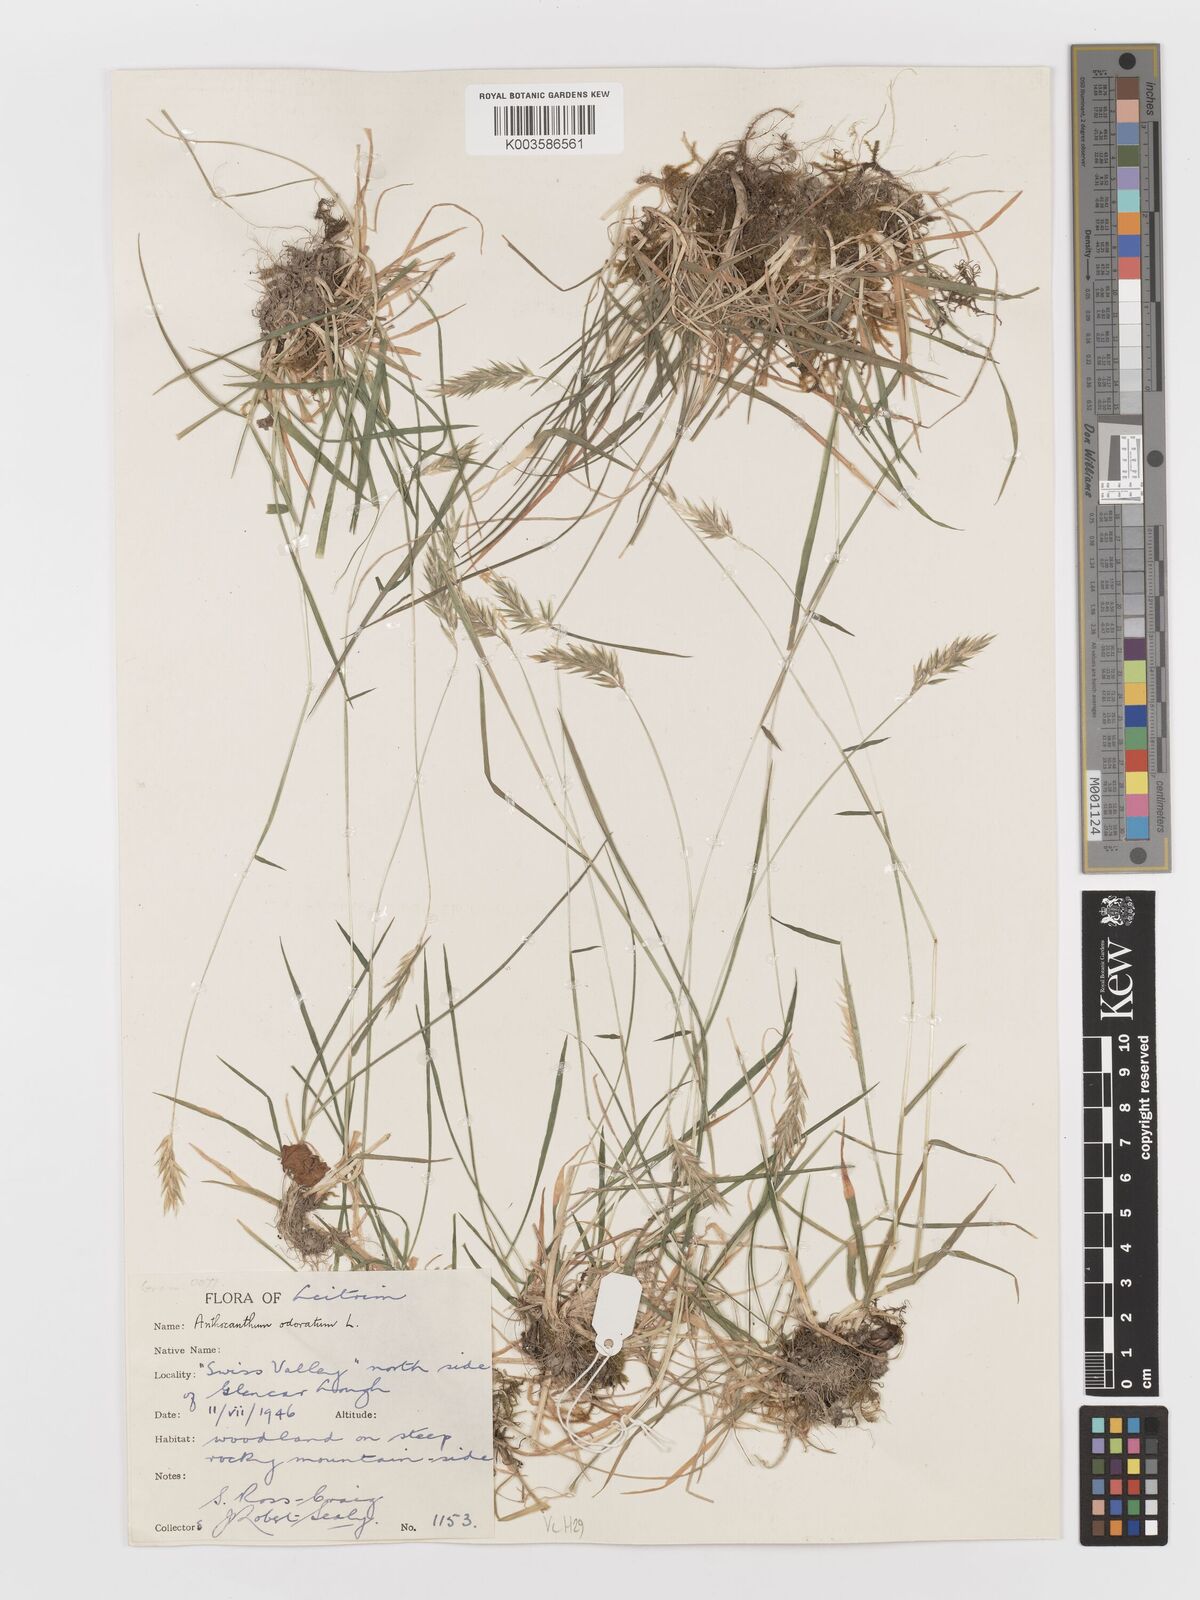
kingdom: Plantae
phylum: Tracheophyta
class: Liliopsida
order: Poales
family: Poaceae
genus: Anthoxanthum
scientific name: Anthoxanthum odoratum
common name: Sweet vernalgrass
